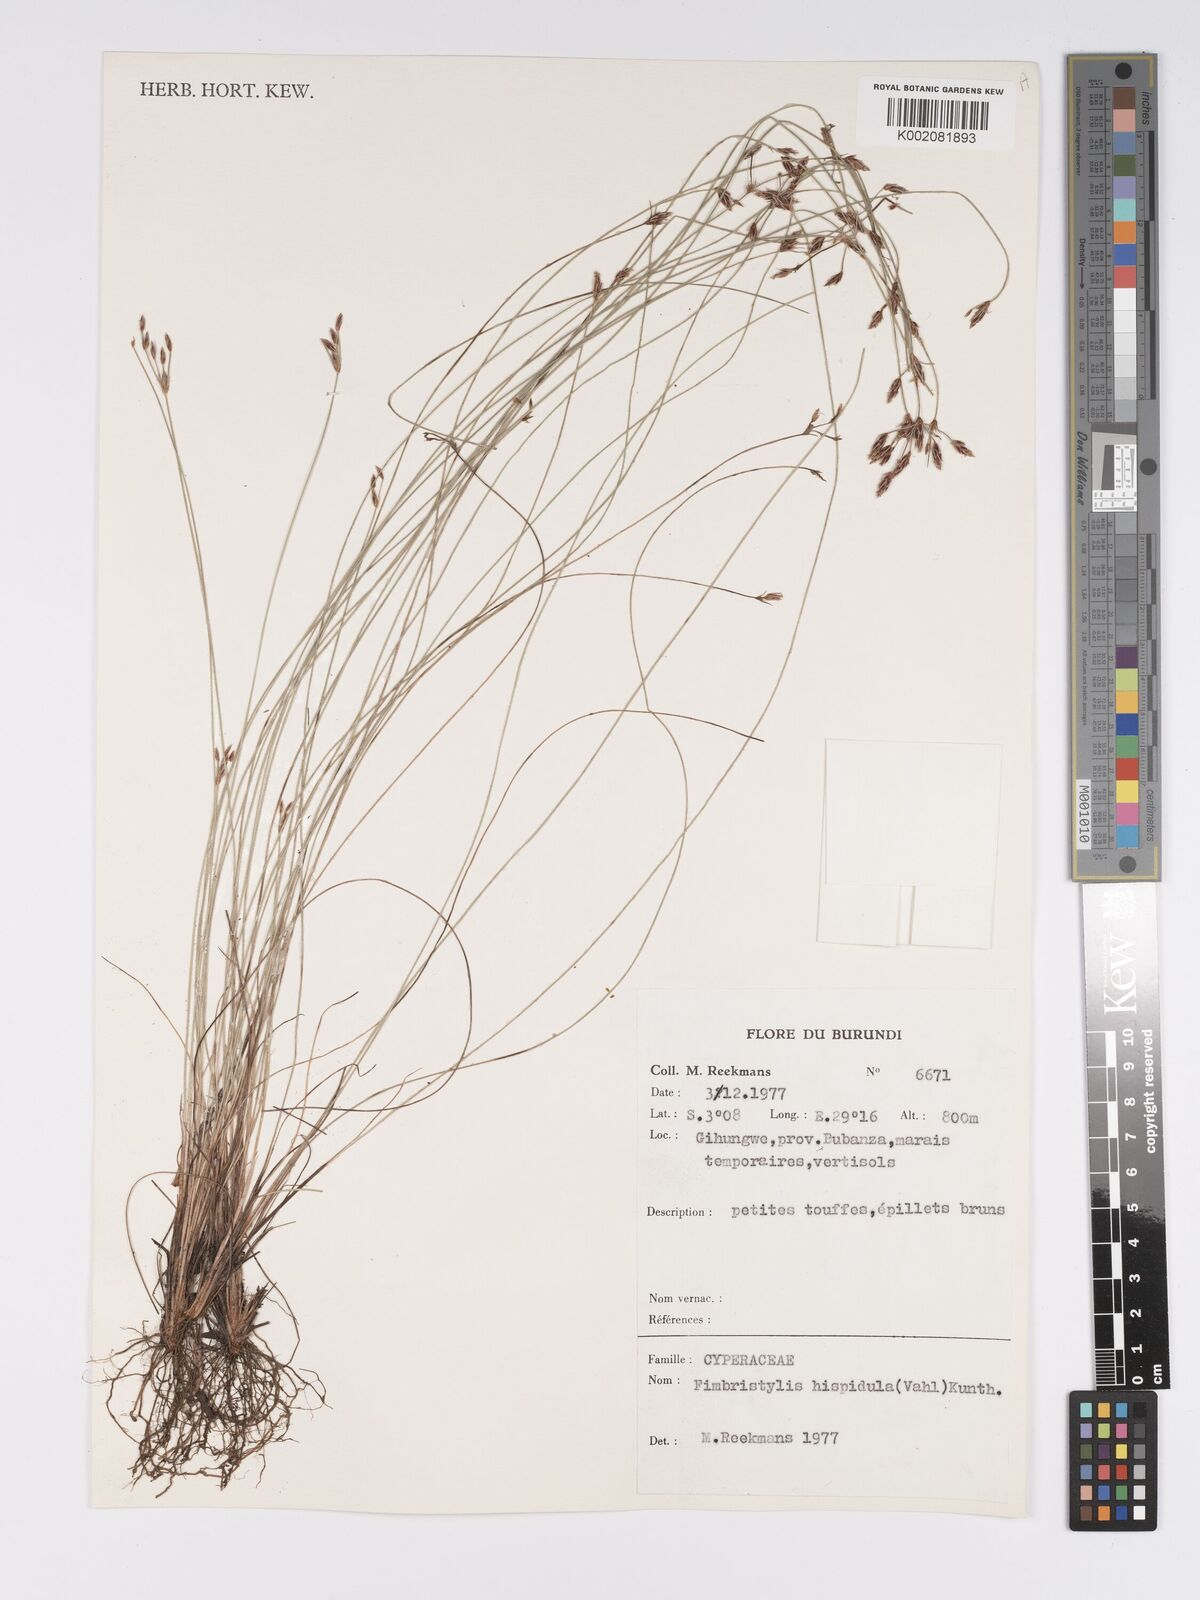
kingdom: Plantae
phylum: Tracheophyta
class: Liliopsida
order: Poales
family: Cyperaceae
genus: Bulbostylis
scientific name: Bulbostylis hispidula
